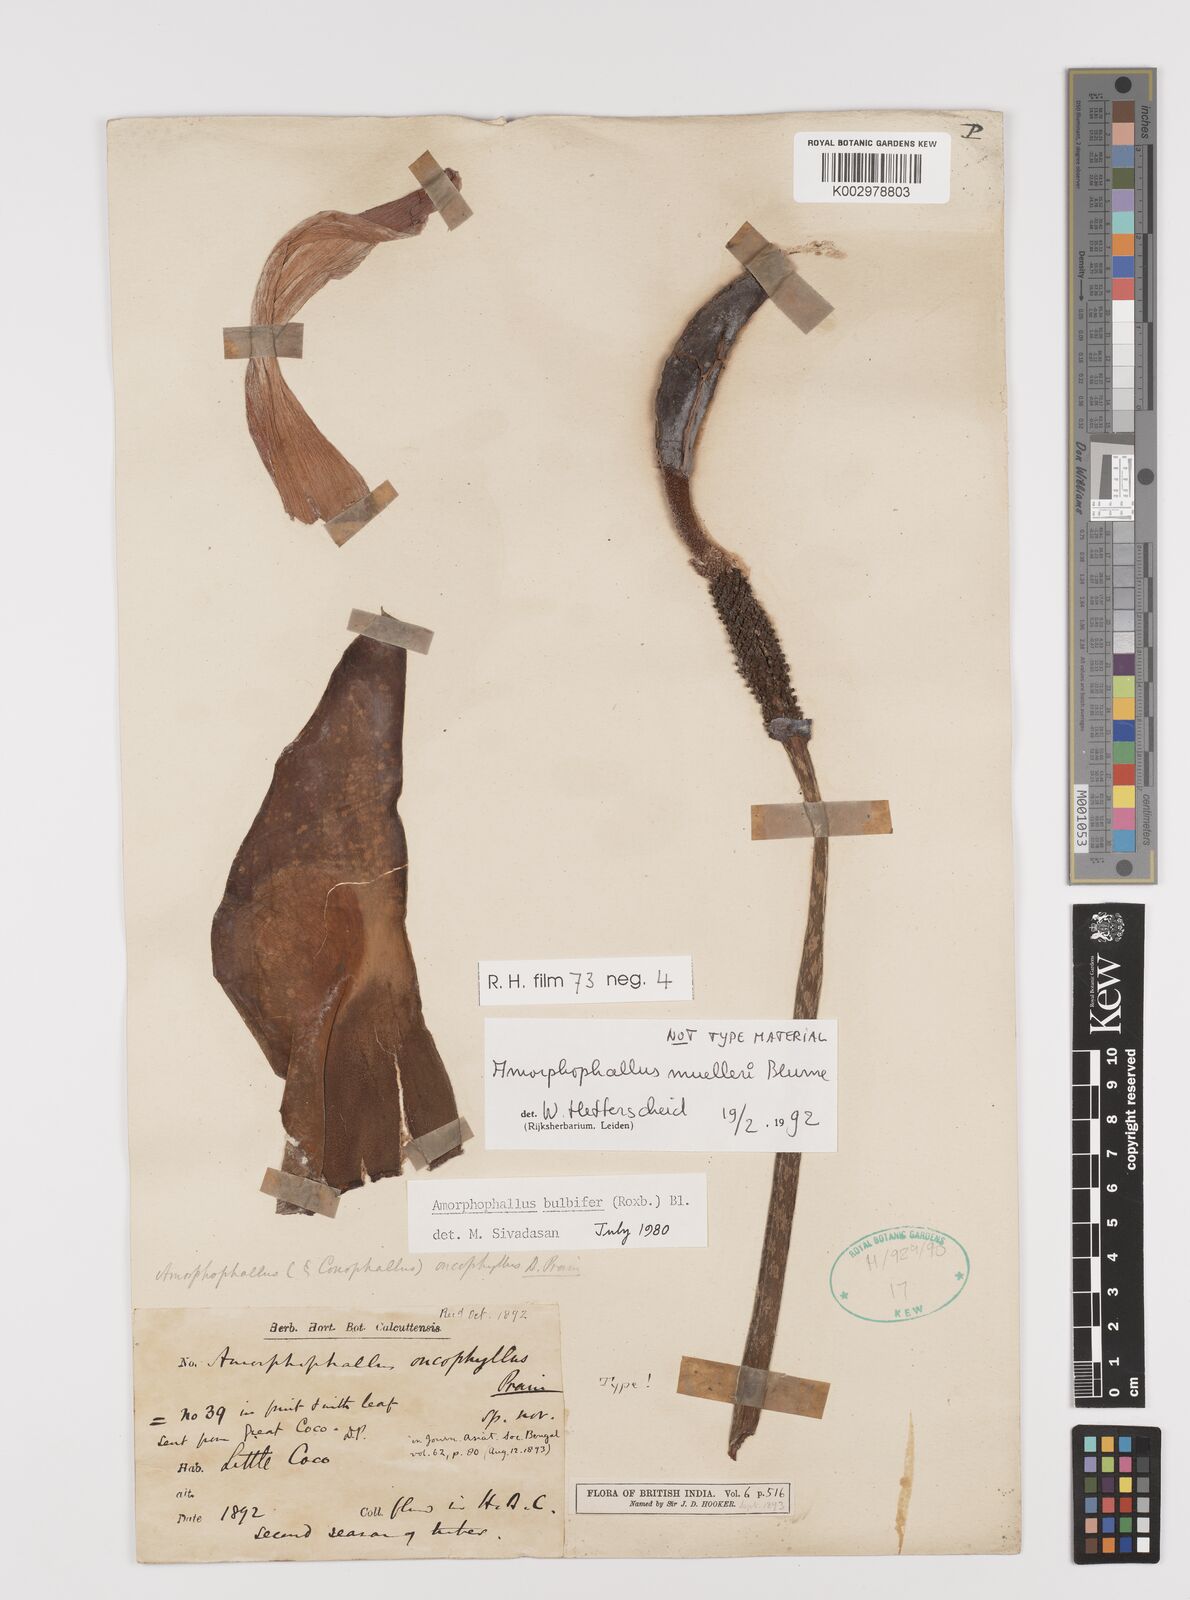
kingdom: Plantae
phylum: Tracheophyta
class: Liliopsida
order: Alismatales
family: Araceae
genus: Amorphophallus
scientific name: Amorphophallus muelleri
